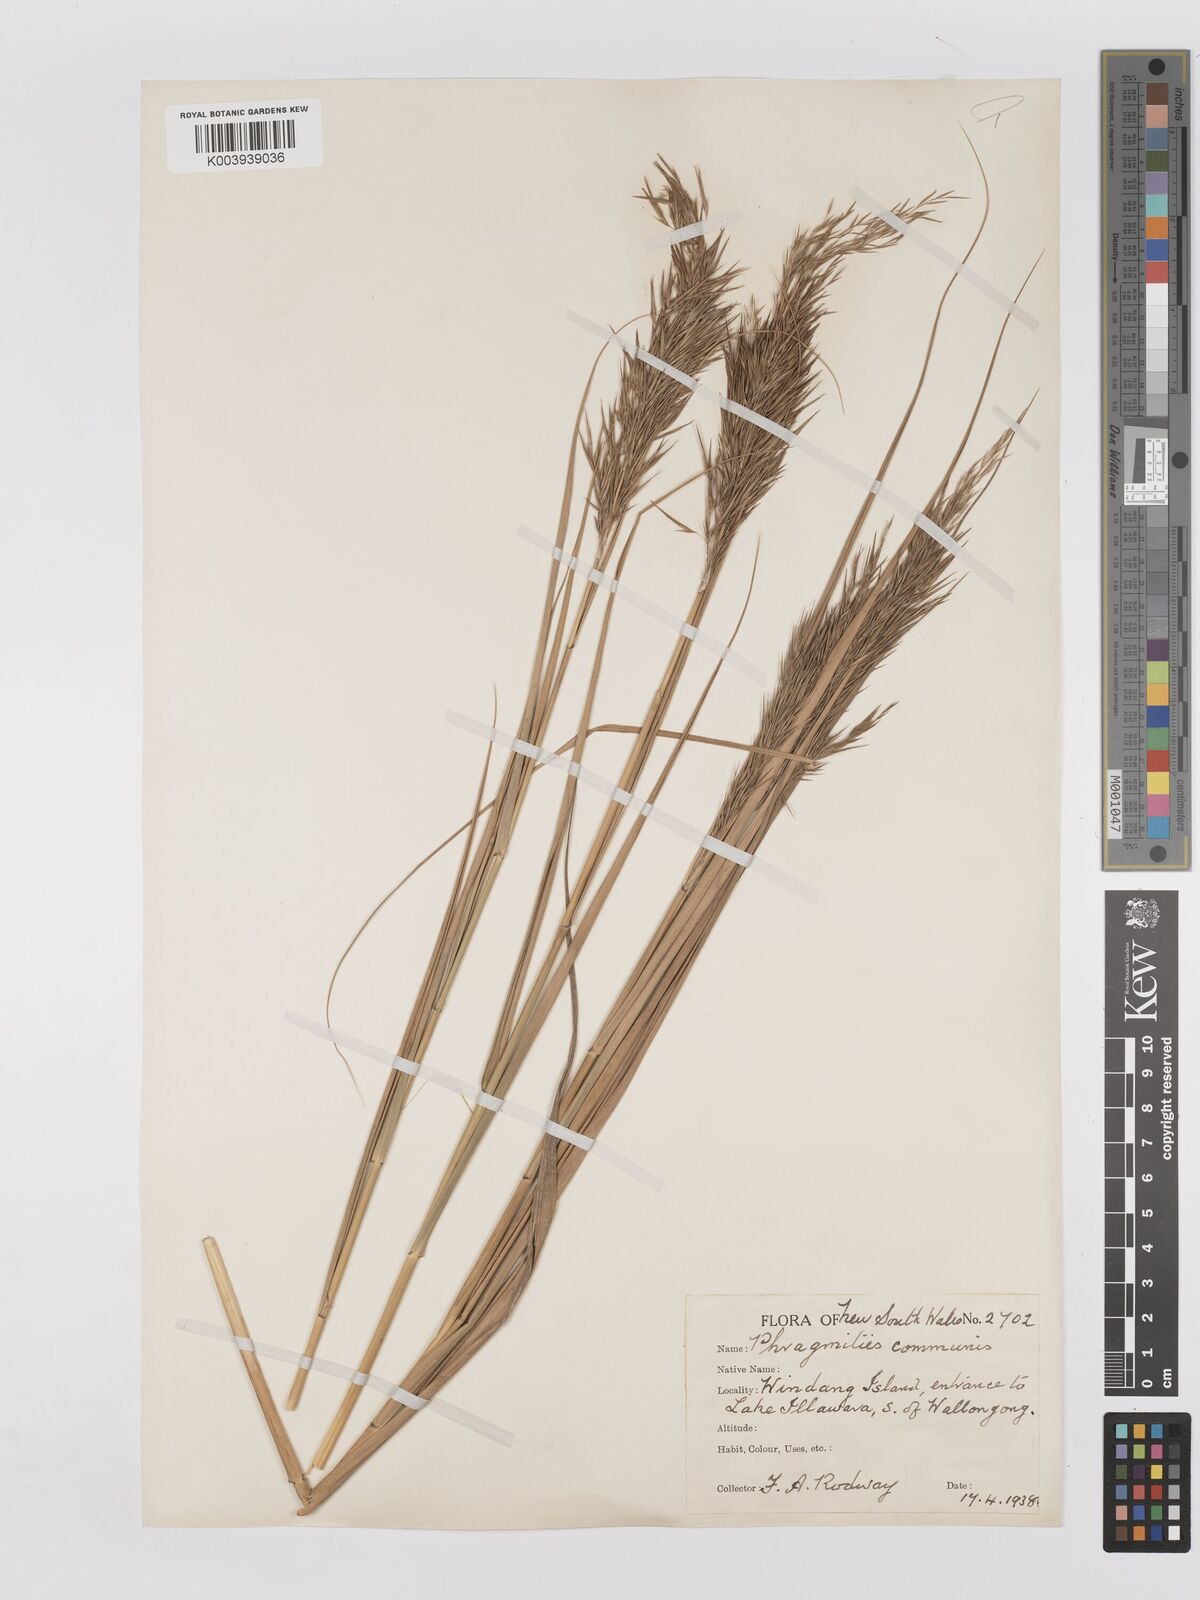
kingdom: Plantae
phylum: Tracheophyta
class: Liliopsida
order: Poales
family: Poaceae
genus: Phragmites
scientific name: Phragmites australis
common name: Common reed
